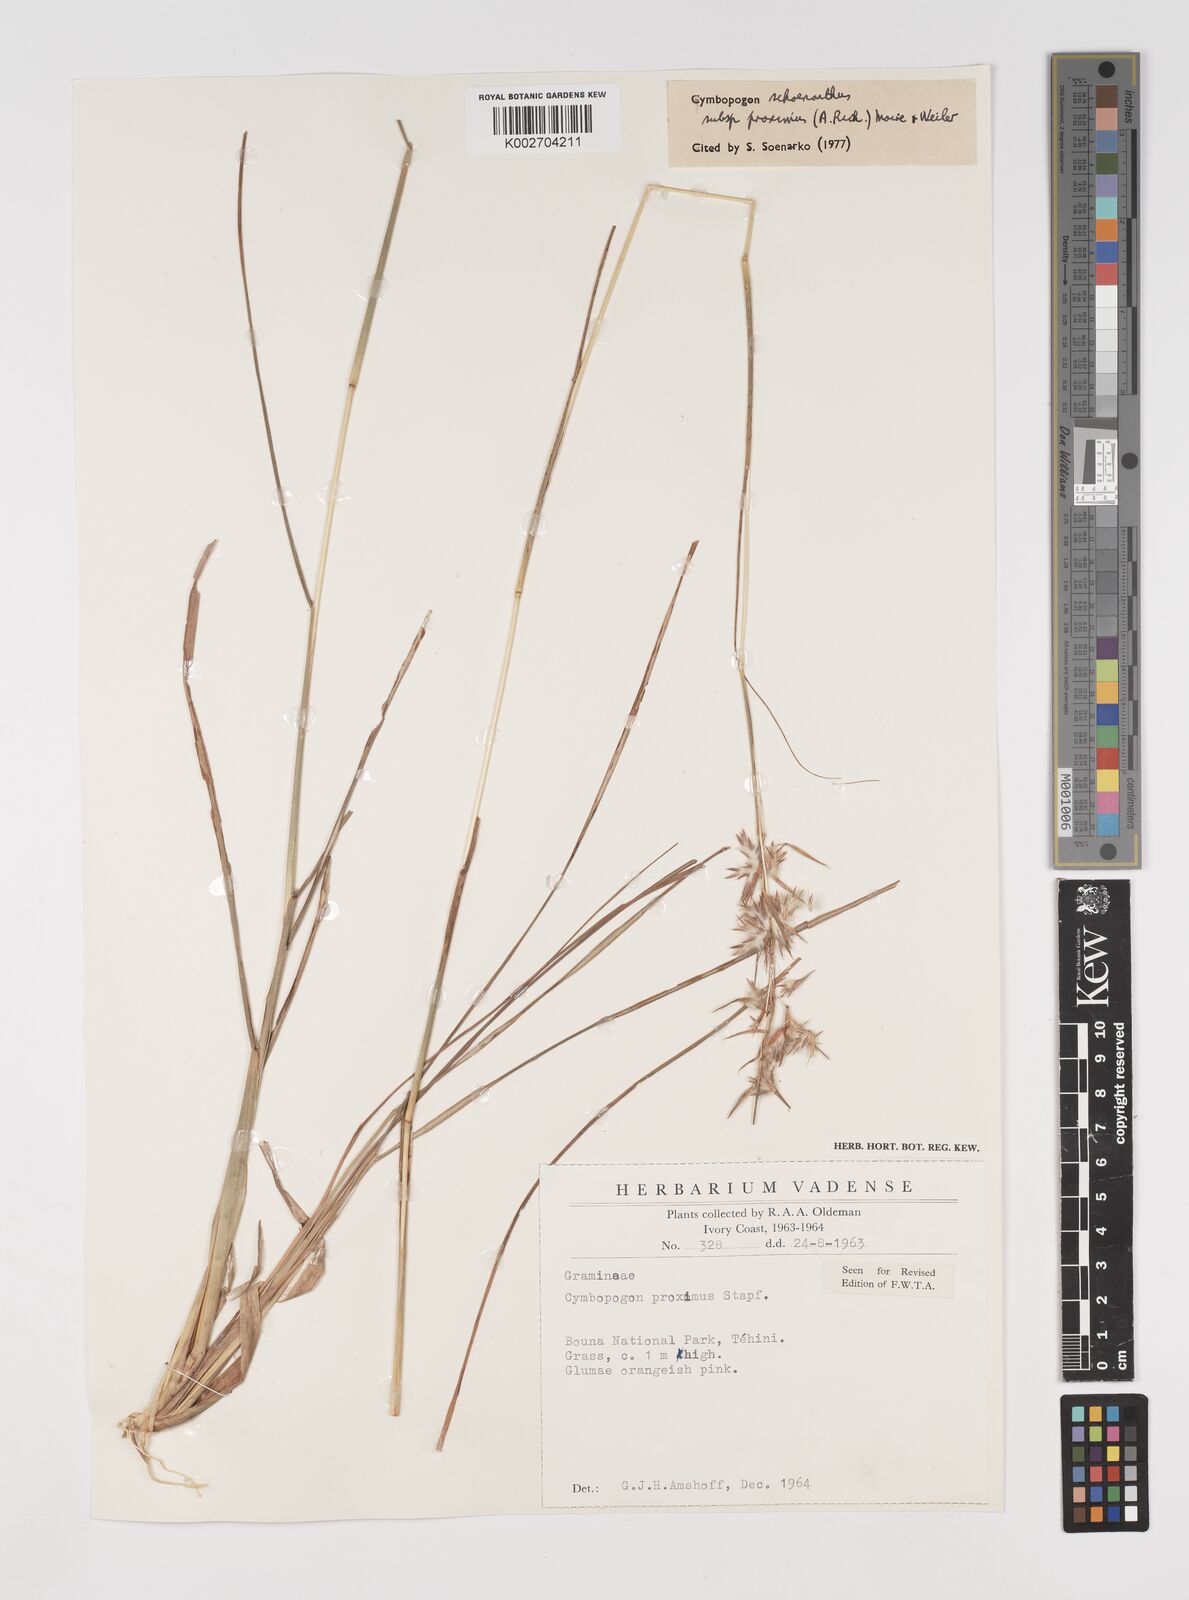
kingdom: Plantae
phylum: Tracheophyta
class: Liliopsida
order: Poales
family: Poaceae
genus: Cymbopogon
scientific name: Cymbopogon schoenanthus
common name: Geranium grass
